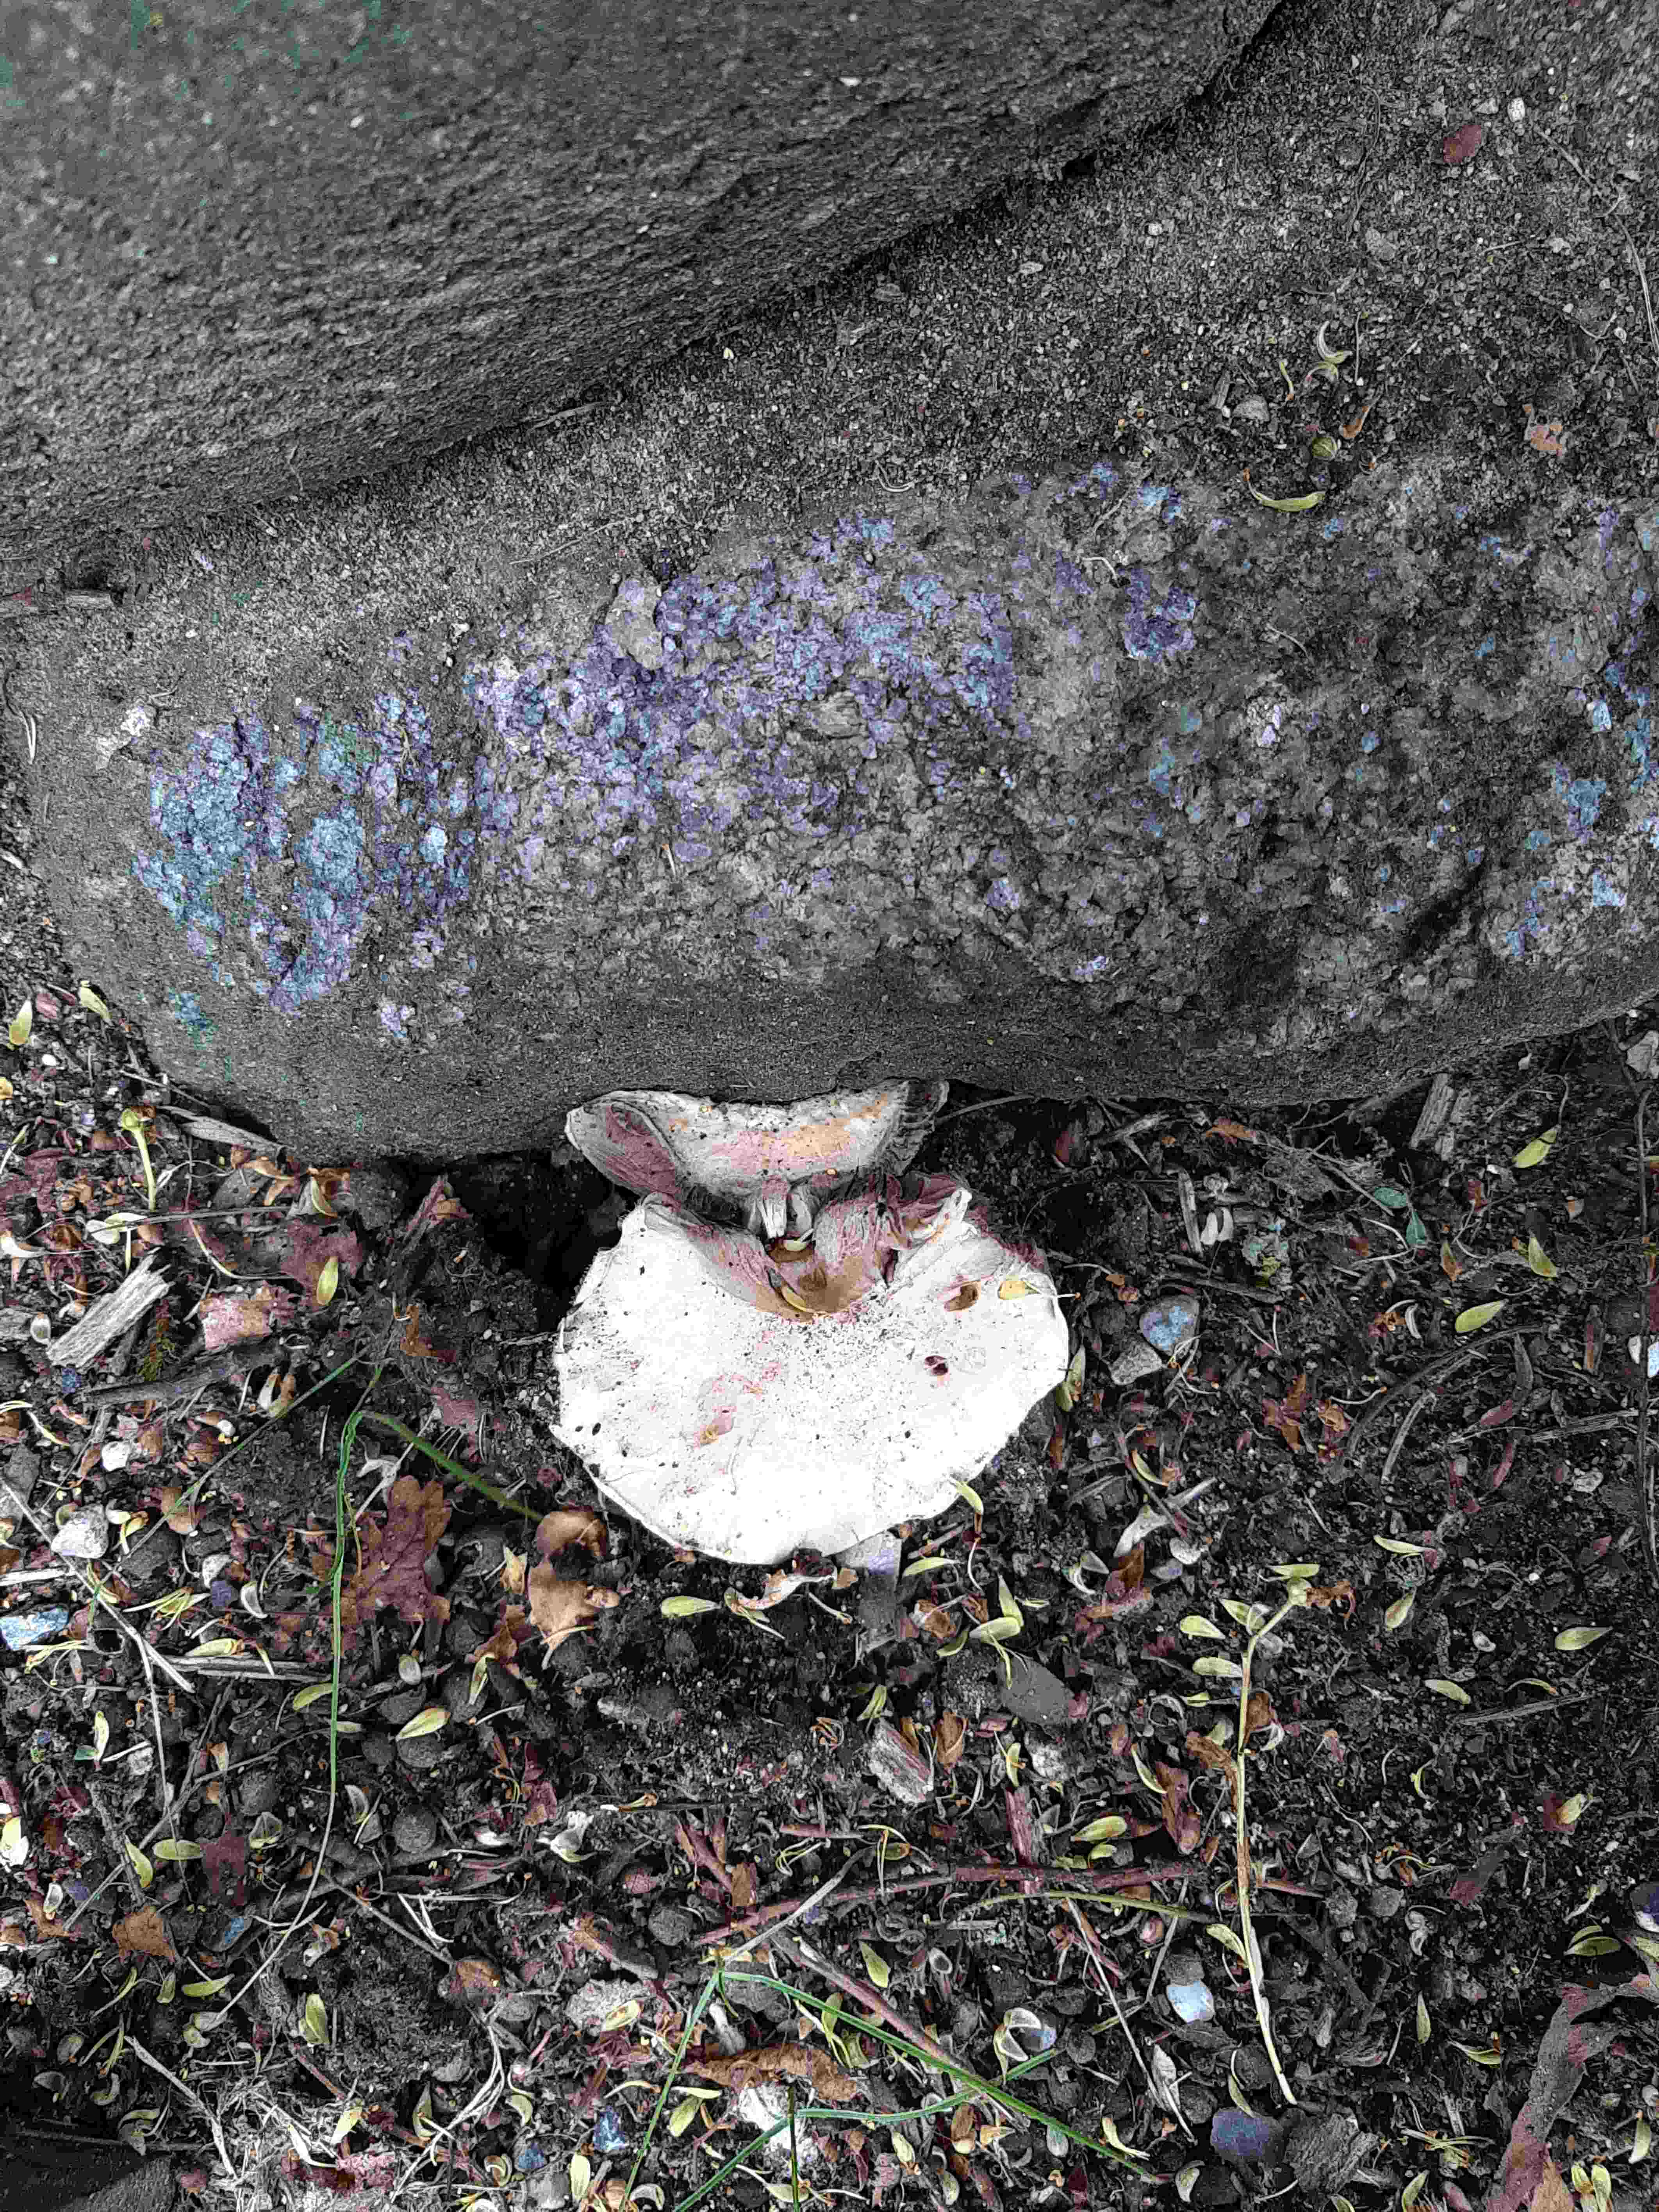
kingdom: Fungi
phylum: Basidiomycota
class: Agaricomycetes
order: Agaricales
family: Agaricaceae
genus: Agaricus
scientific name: Agaricus bitorquis
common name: vej-champignon
